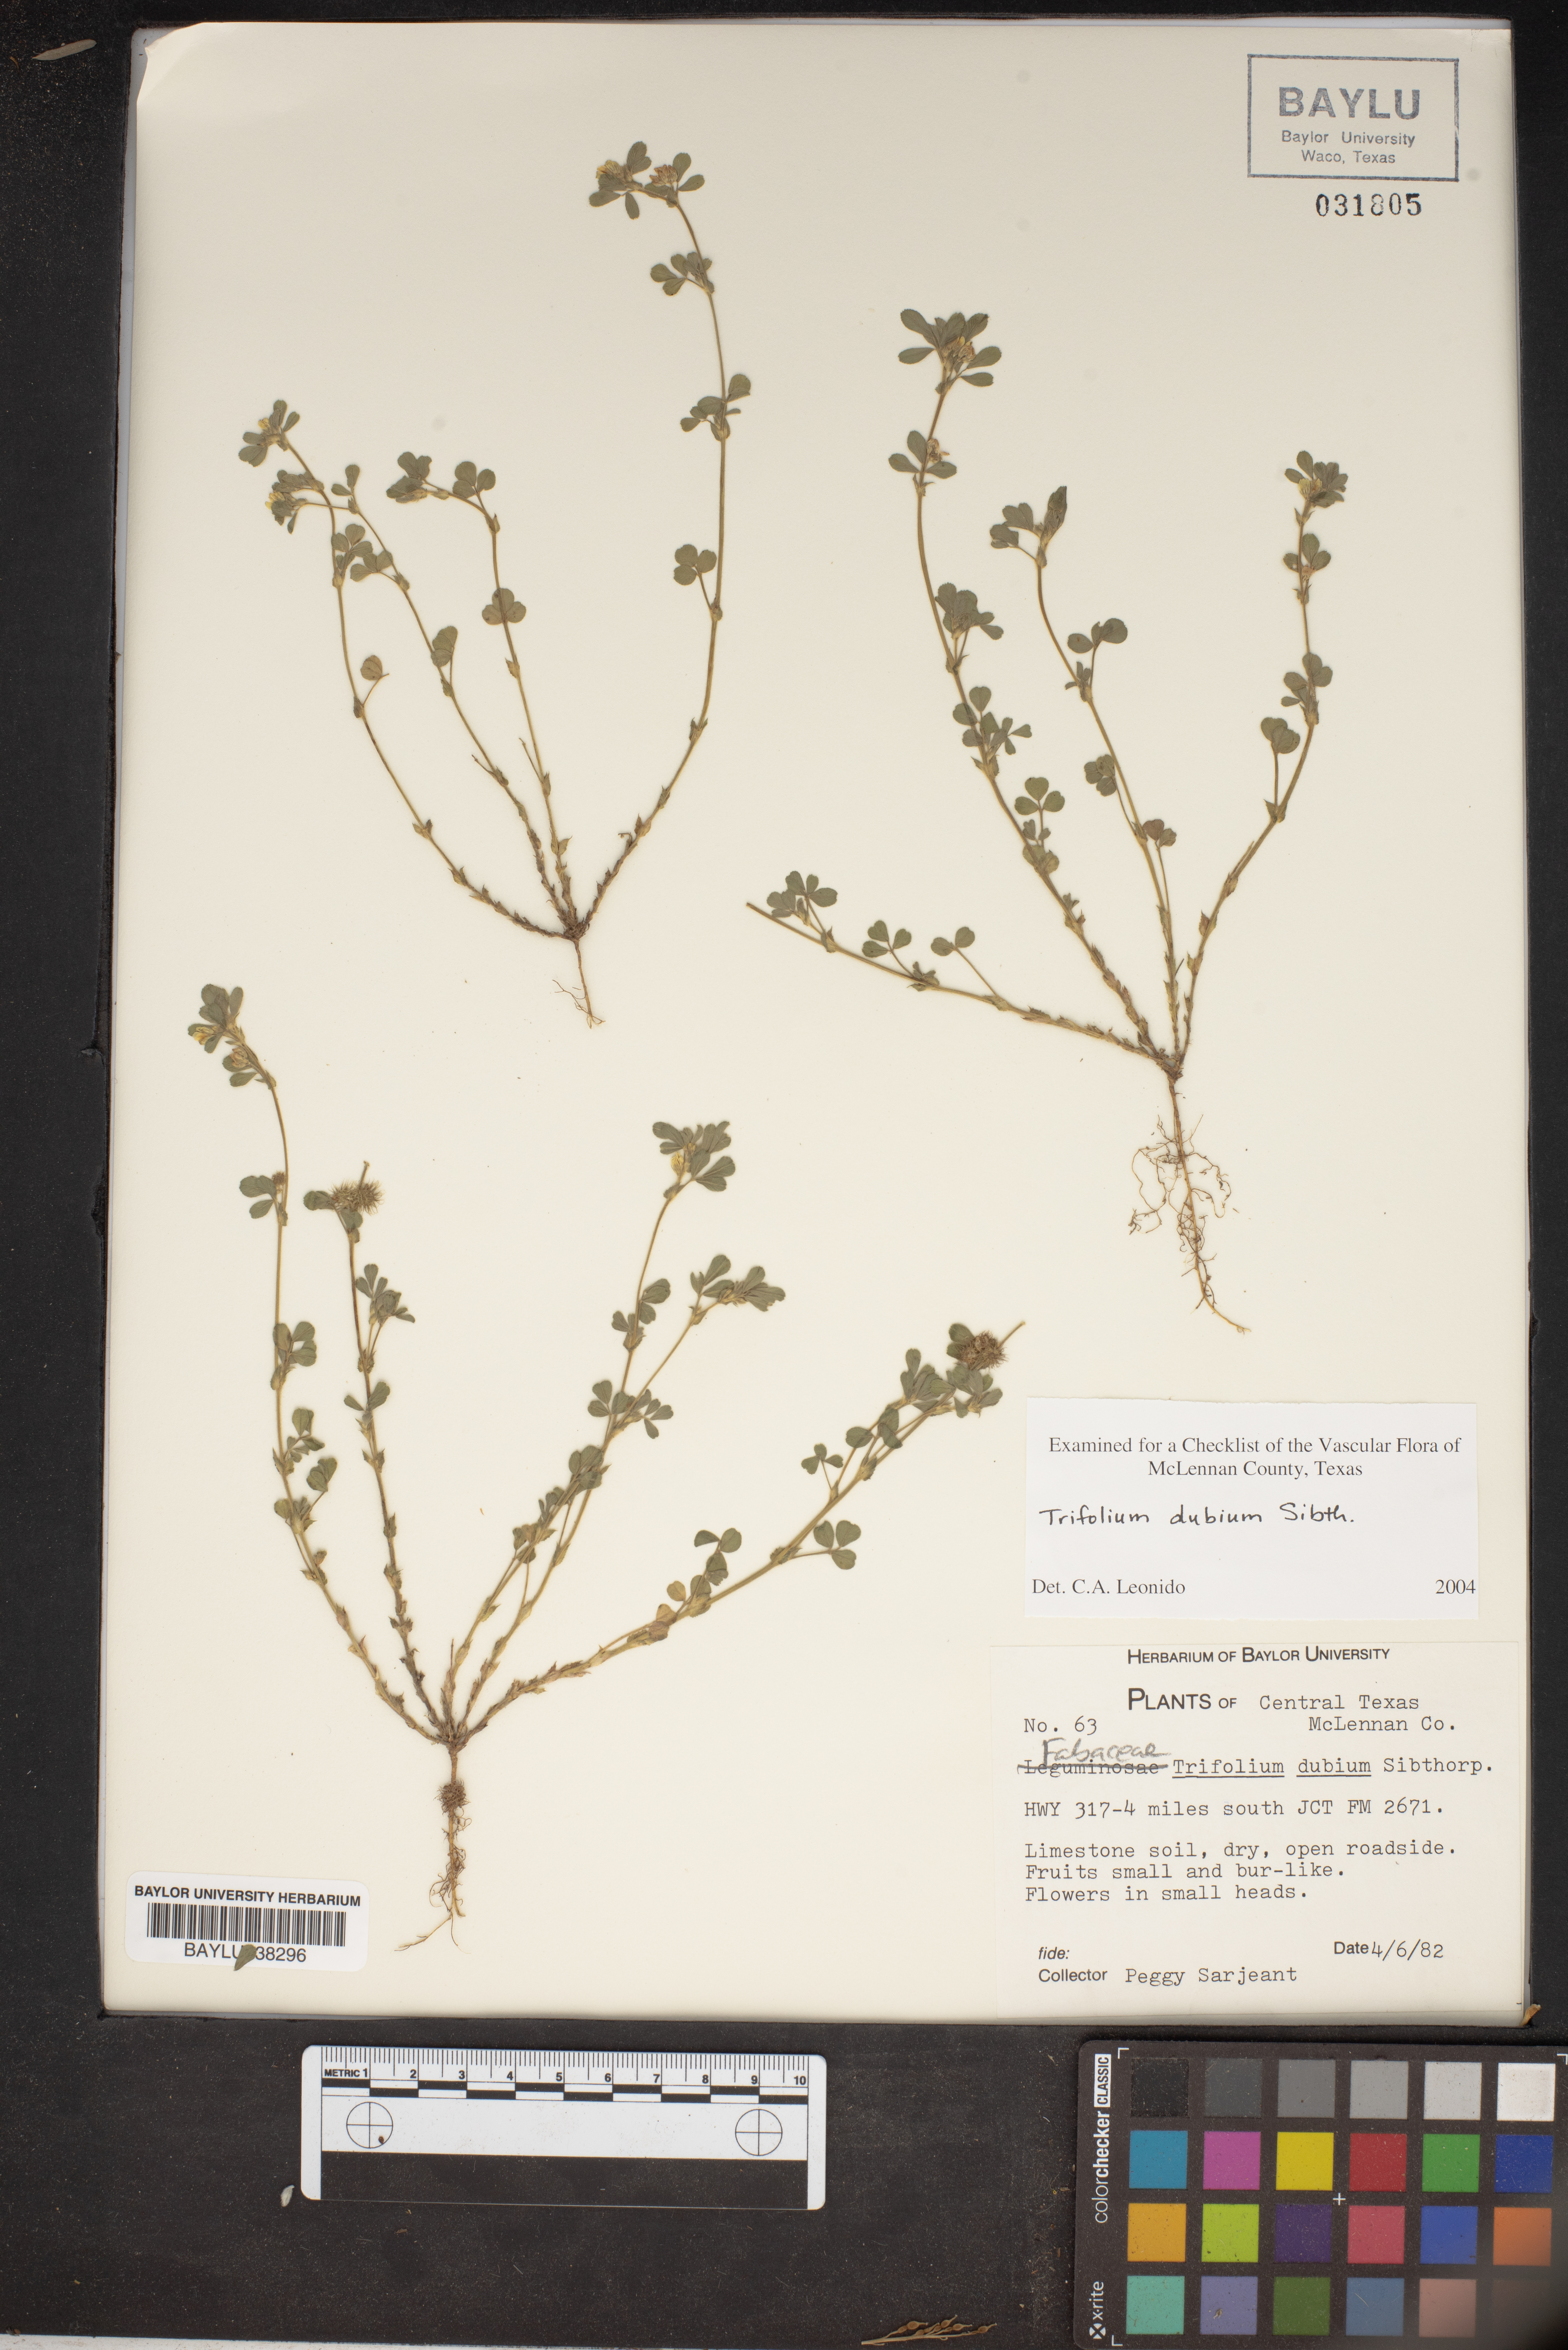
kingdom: Plantae
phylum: Tracheophyta
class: Magnoliopsida
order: Fabales
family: Fabaceae
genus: Trifolium
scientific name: Trifolium dubium
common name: Suckling clover
